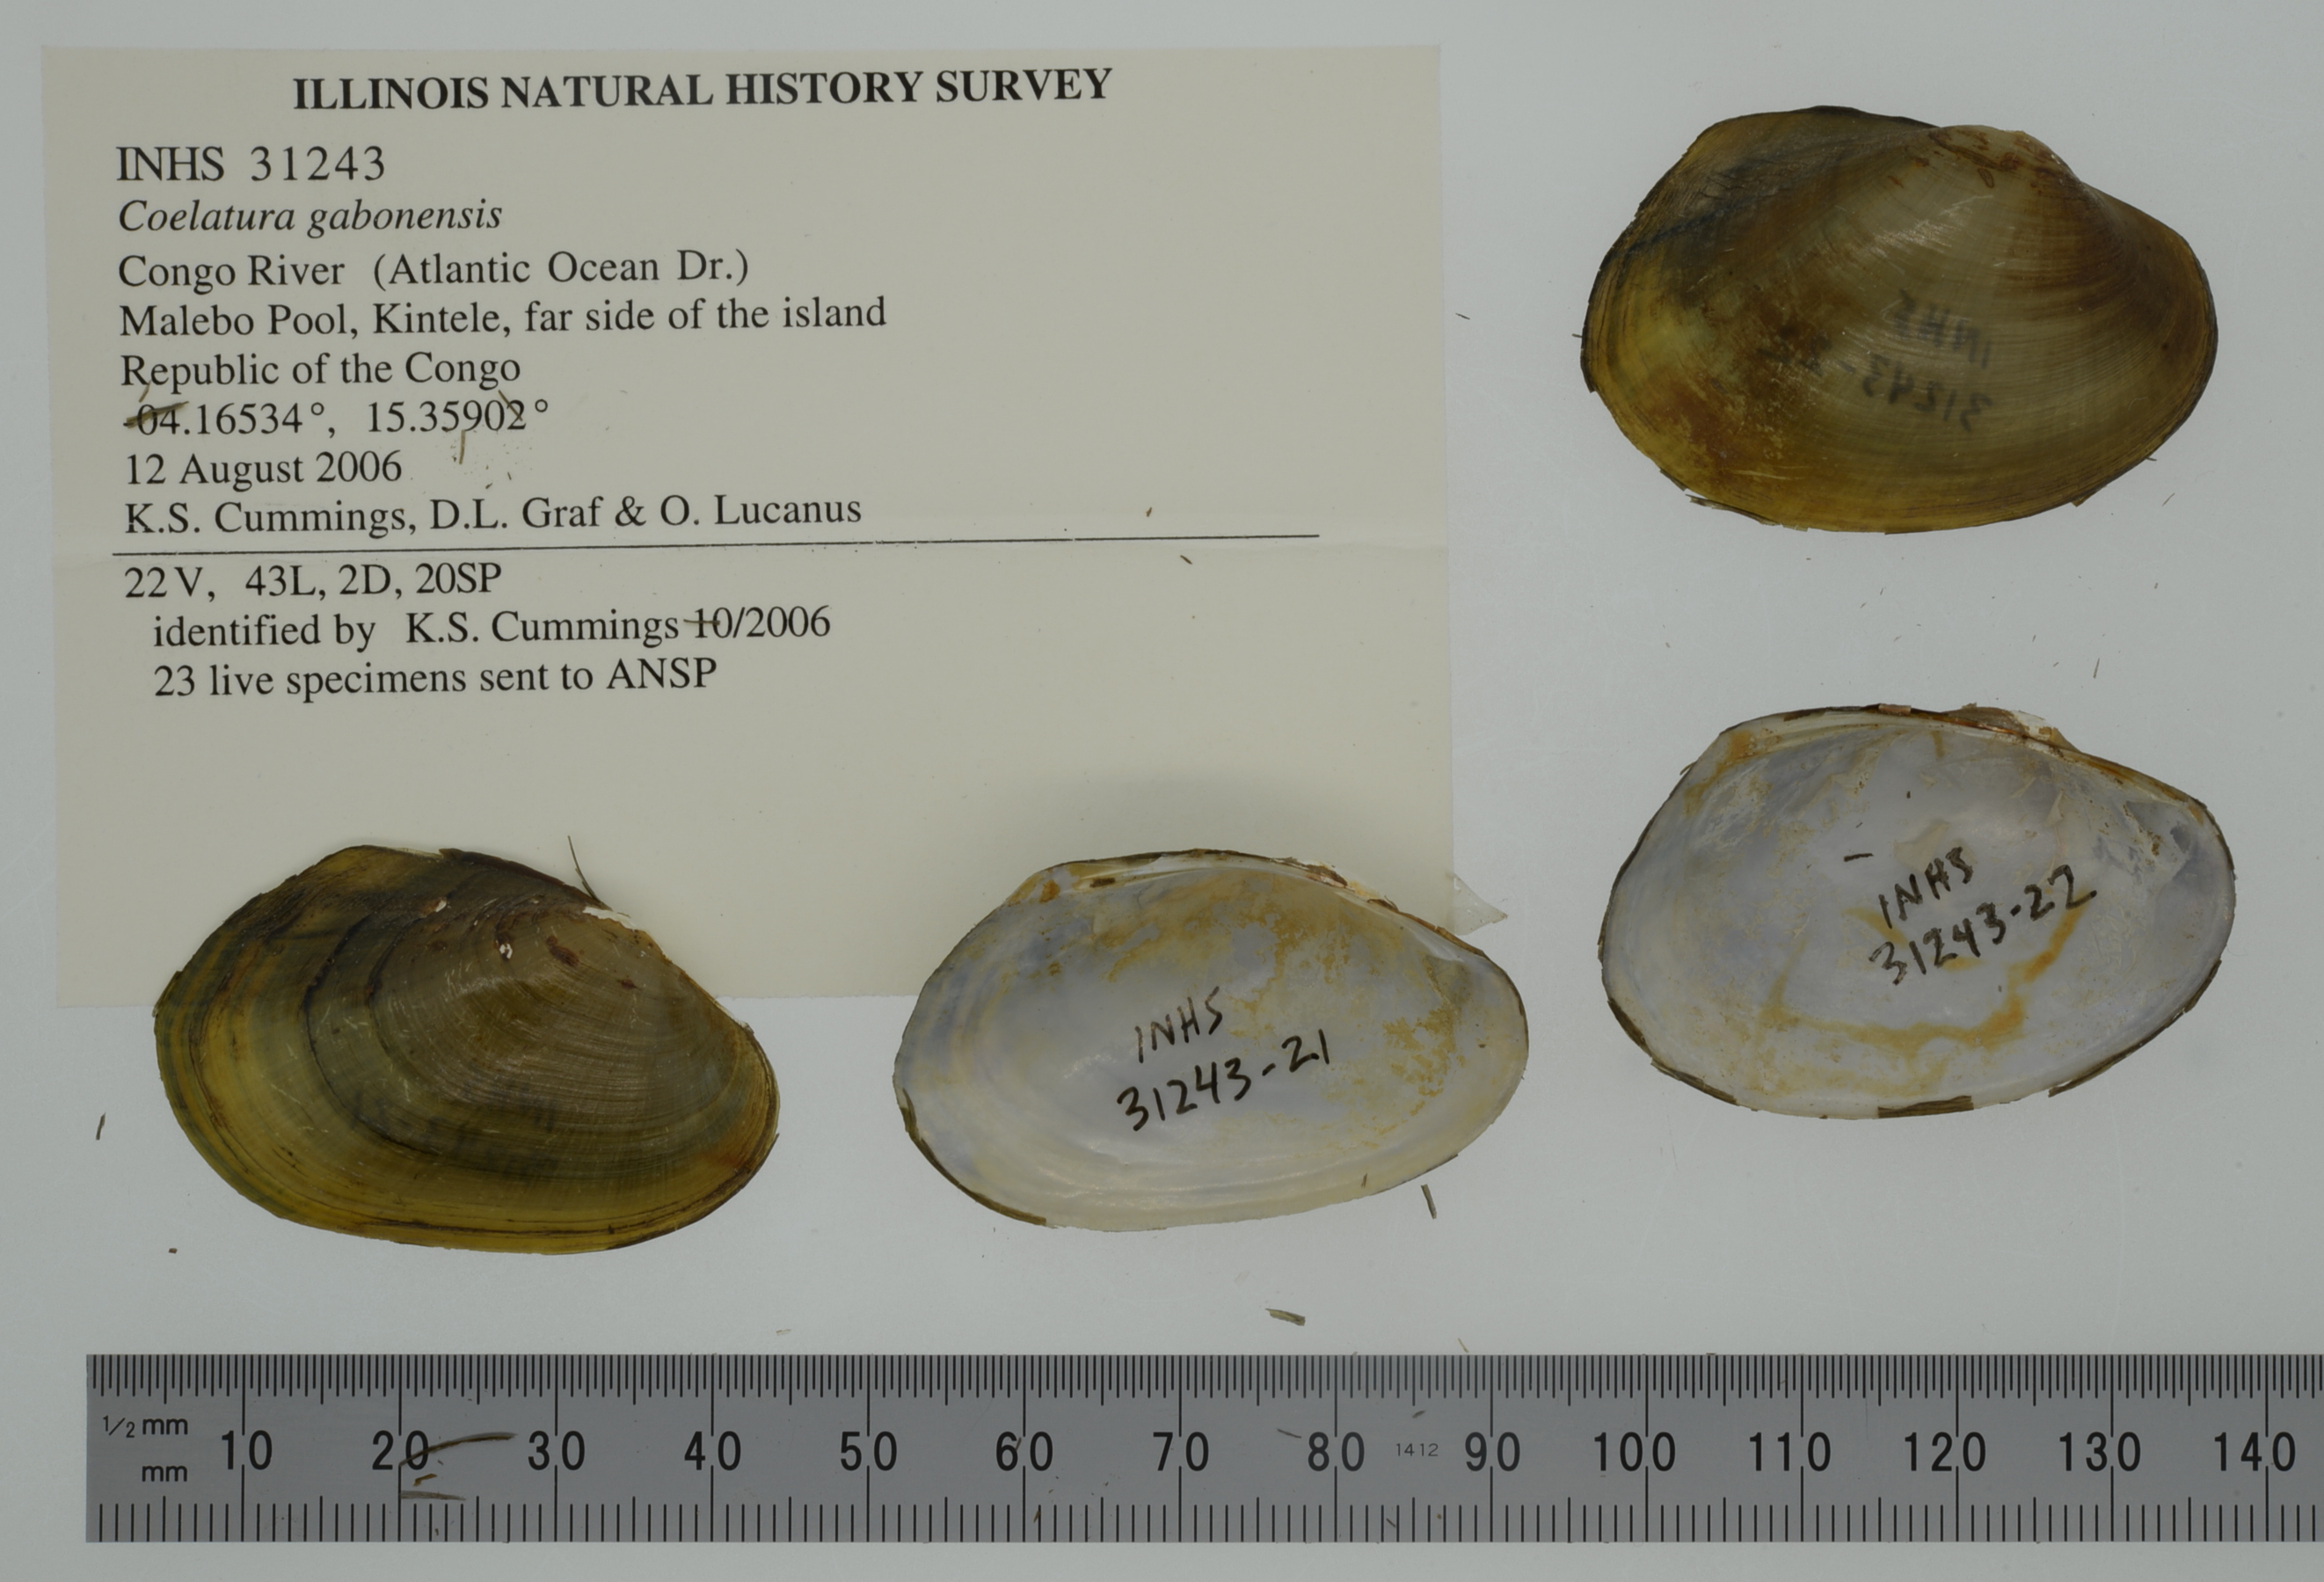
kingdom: Animalia
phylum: Mollusca
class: Bivalvia
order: Unionida
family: Unionidae
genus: Coelatura
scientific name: Coelatura gabonensis
